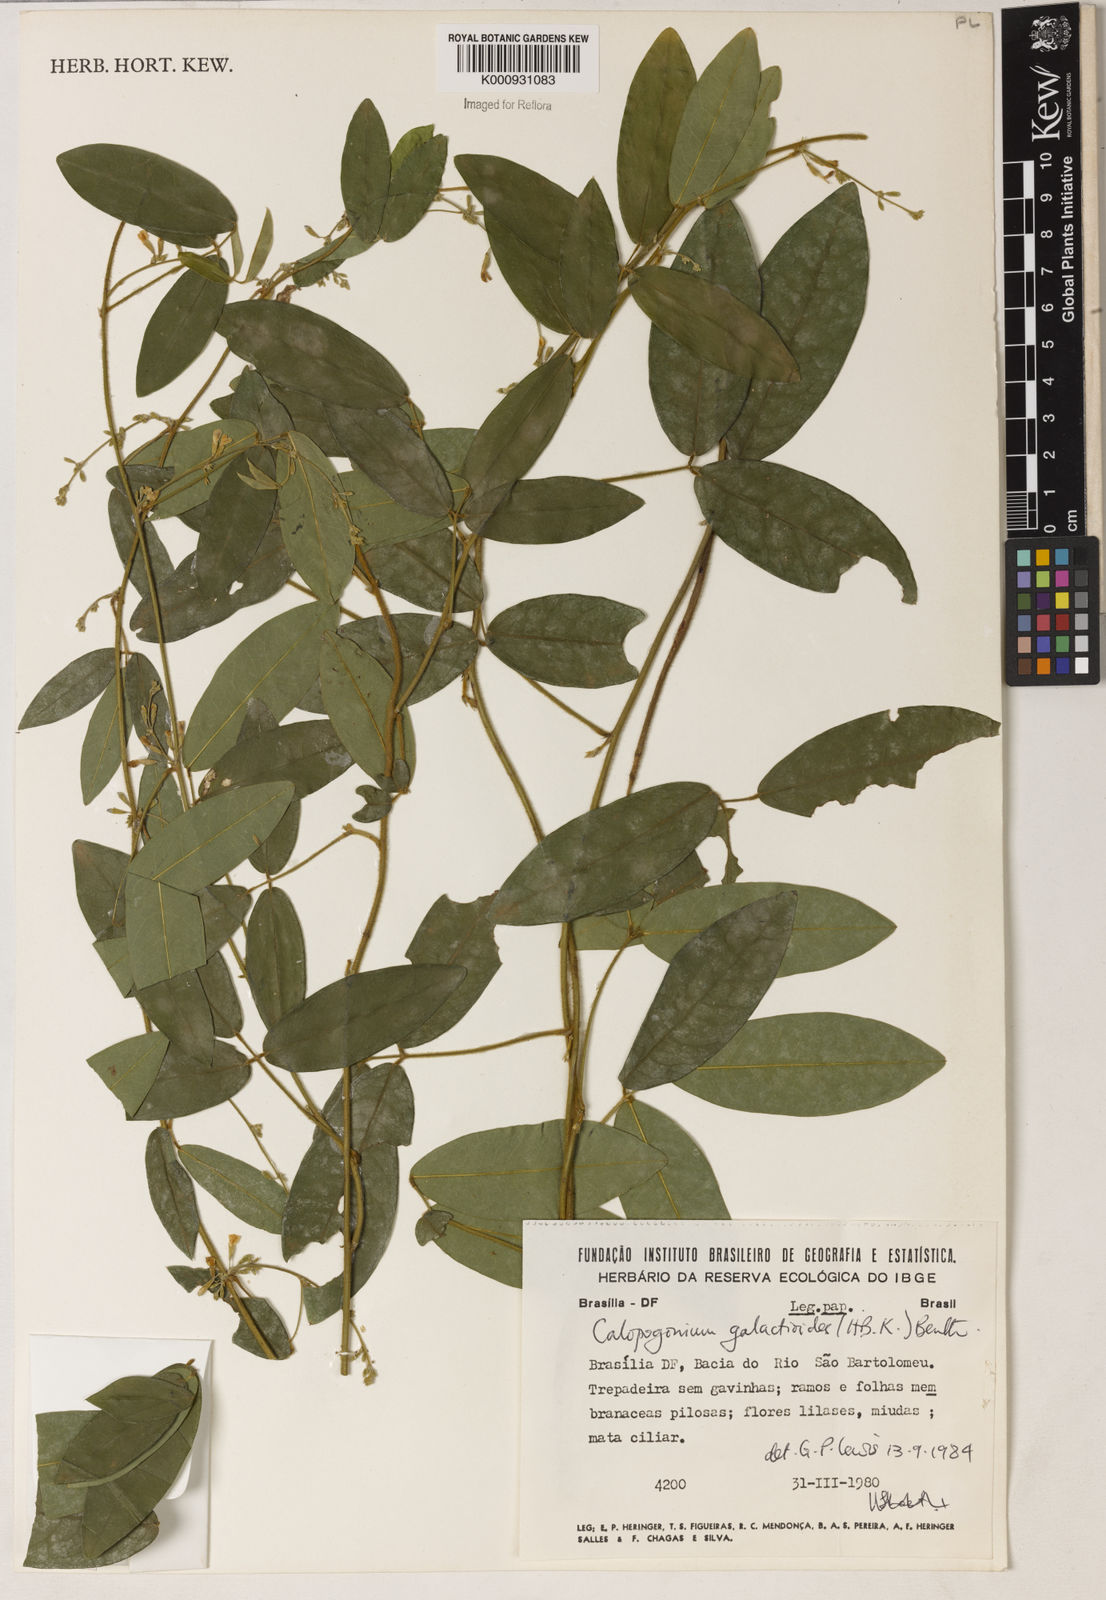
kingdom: Plantae
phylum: Tracheophyta
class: Magnoliopsida
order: Fabales
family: Fabaceae
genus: Calopogonium
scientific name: Calopogonium galactioides
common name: Legume
